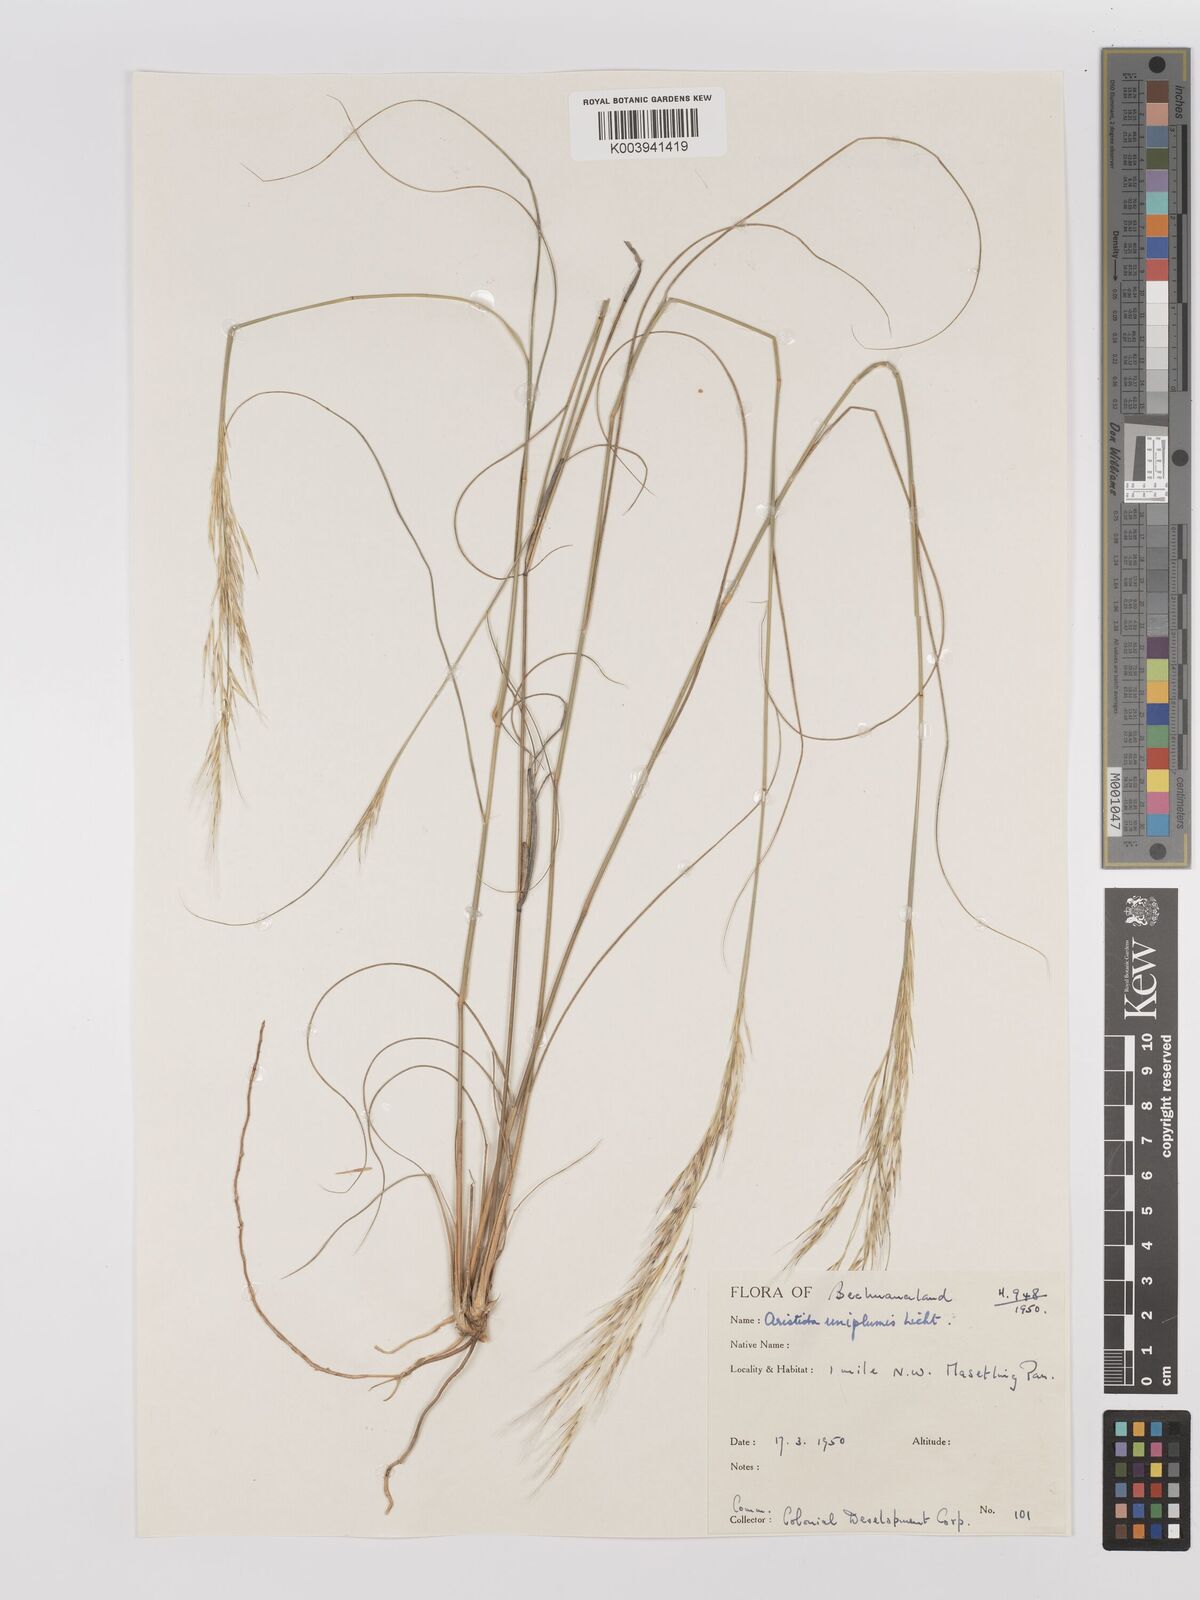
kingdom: Plantae
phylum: Tracheophyta
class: Liliopsida
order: Poales
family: Poaceae
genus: Stipagrostis
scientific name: Stipagrostis uniplumis
